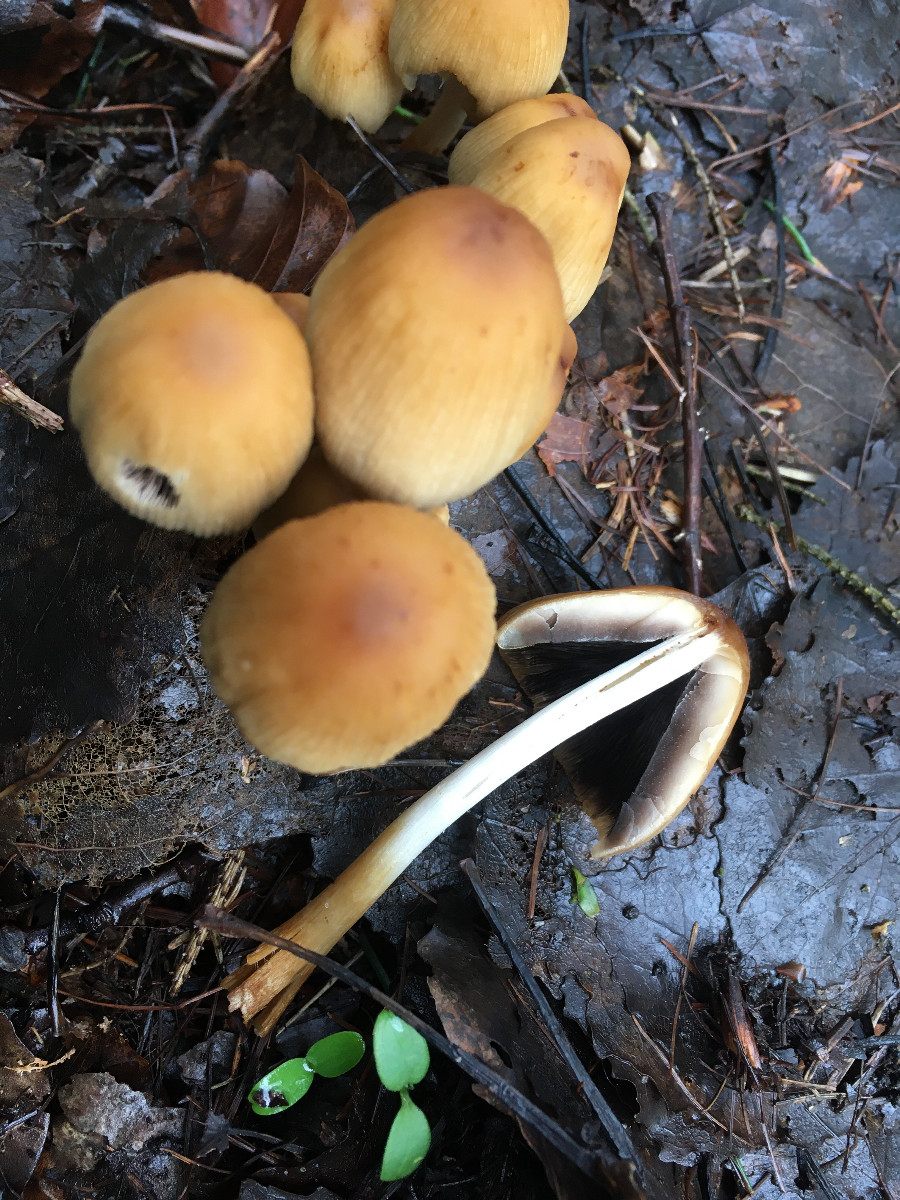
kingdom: Fungi
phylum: Basidiomycota
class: Agaricomycetes
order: Agaricales
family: Psathyrellaceae
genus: Coprinellus
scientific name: Coprinellus micaceus
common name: glimmer-blækhat
